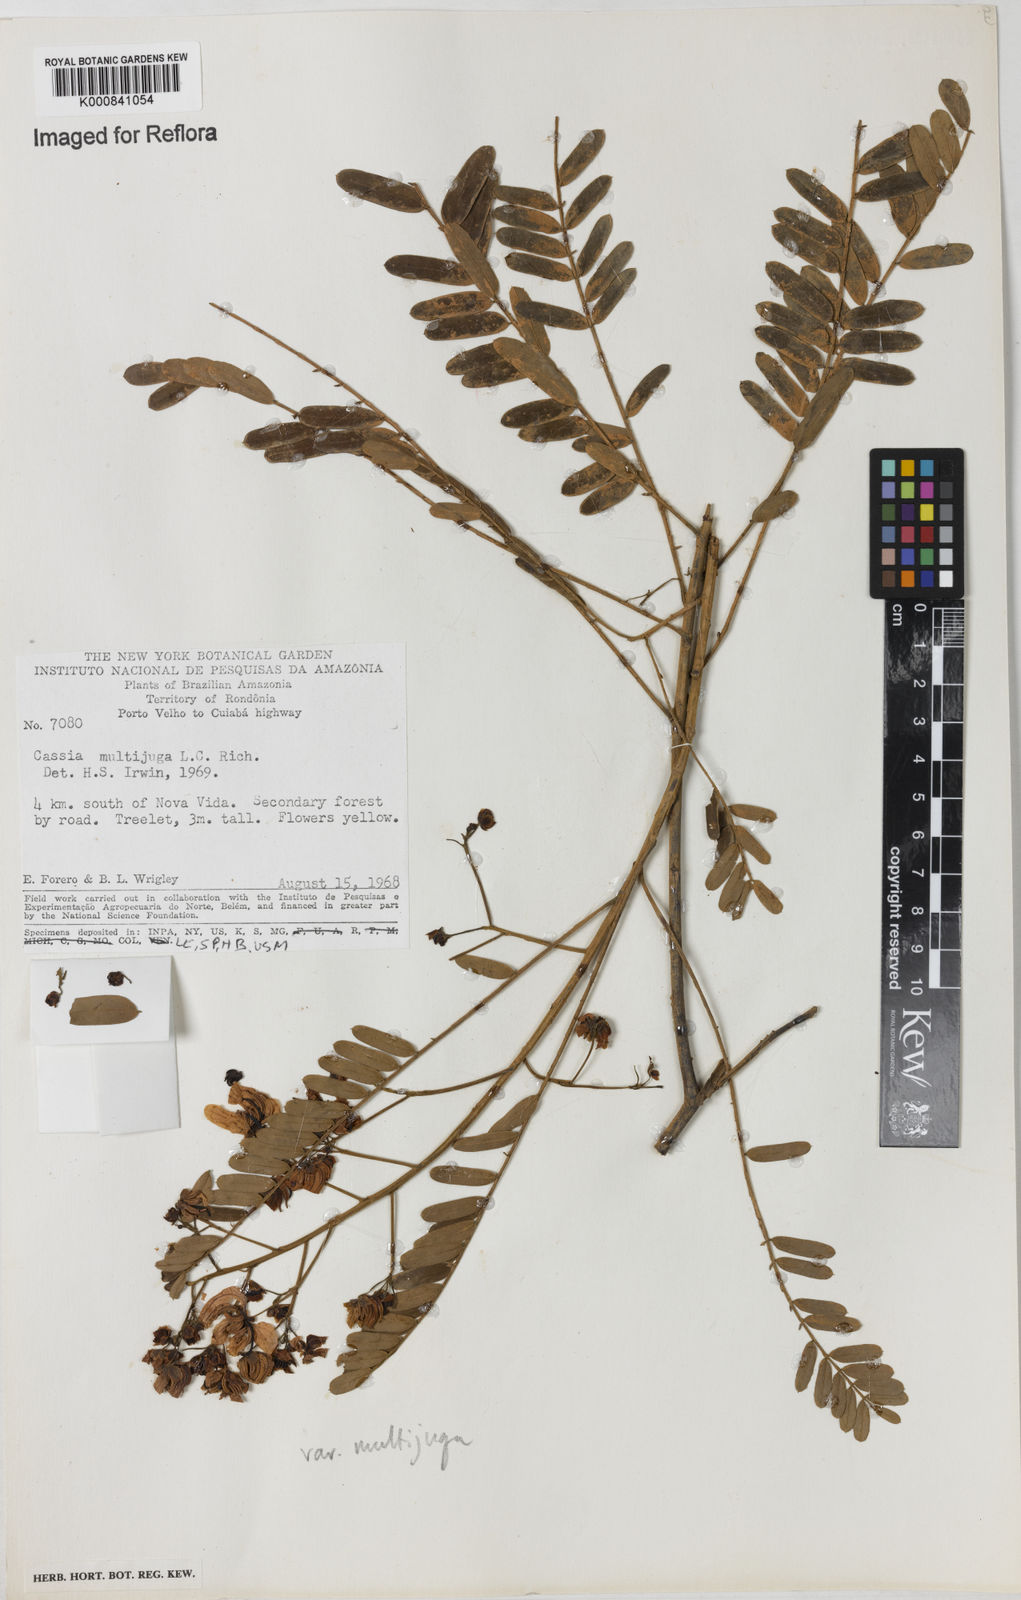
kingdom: Plantae
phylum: Tracheophyta
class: Magnoliopsida
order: Fabales
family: Fabaceae
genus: Senna
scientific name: Senna multijuga
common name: False sicklepod
